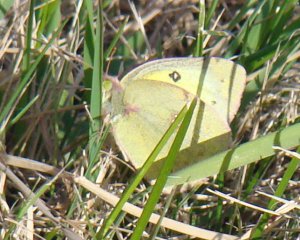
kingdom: Animalia
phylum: Arthropoda
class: Insecta
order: Lepidoptera
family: Pieridae
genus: Colias
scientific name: Colias philodice
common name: Clouded Sulphur
